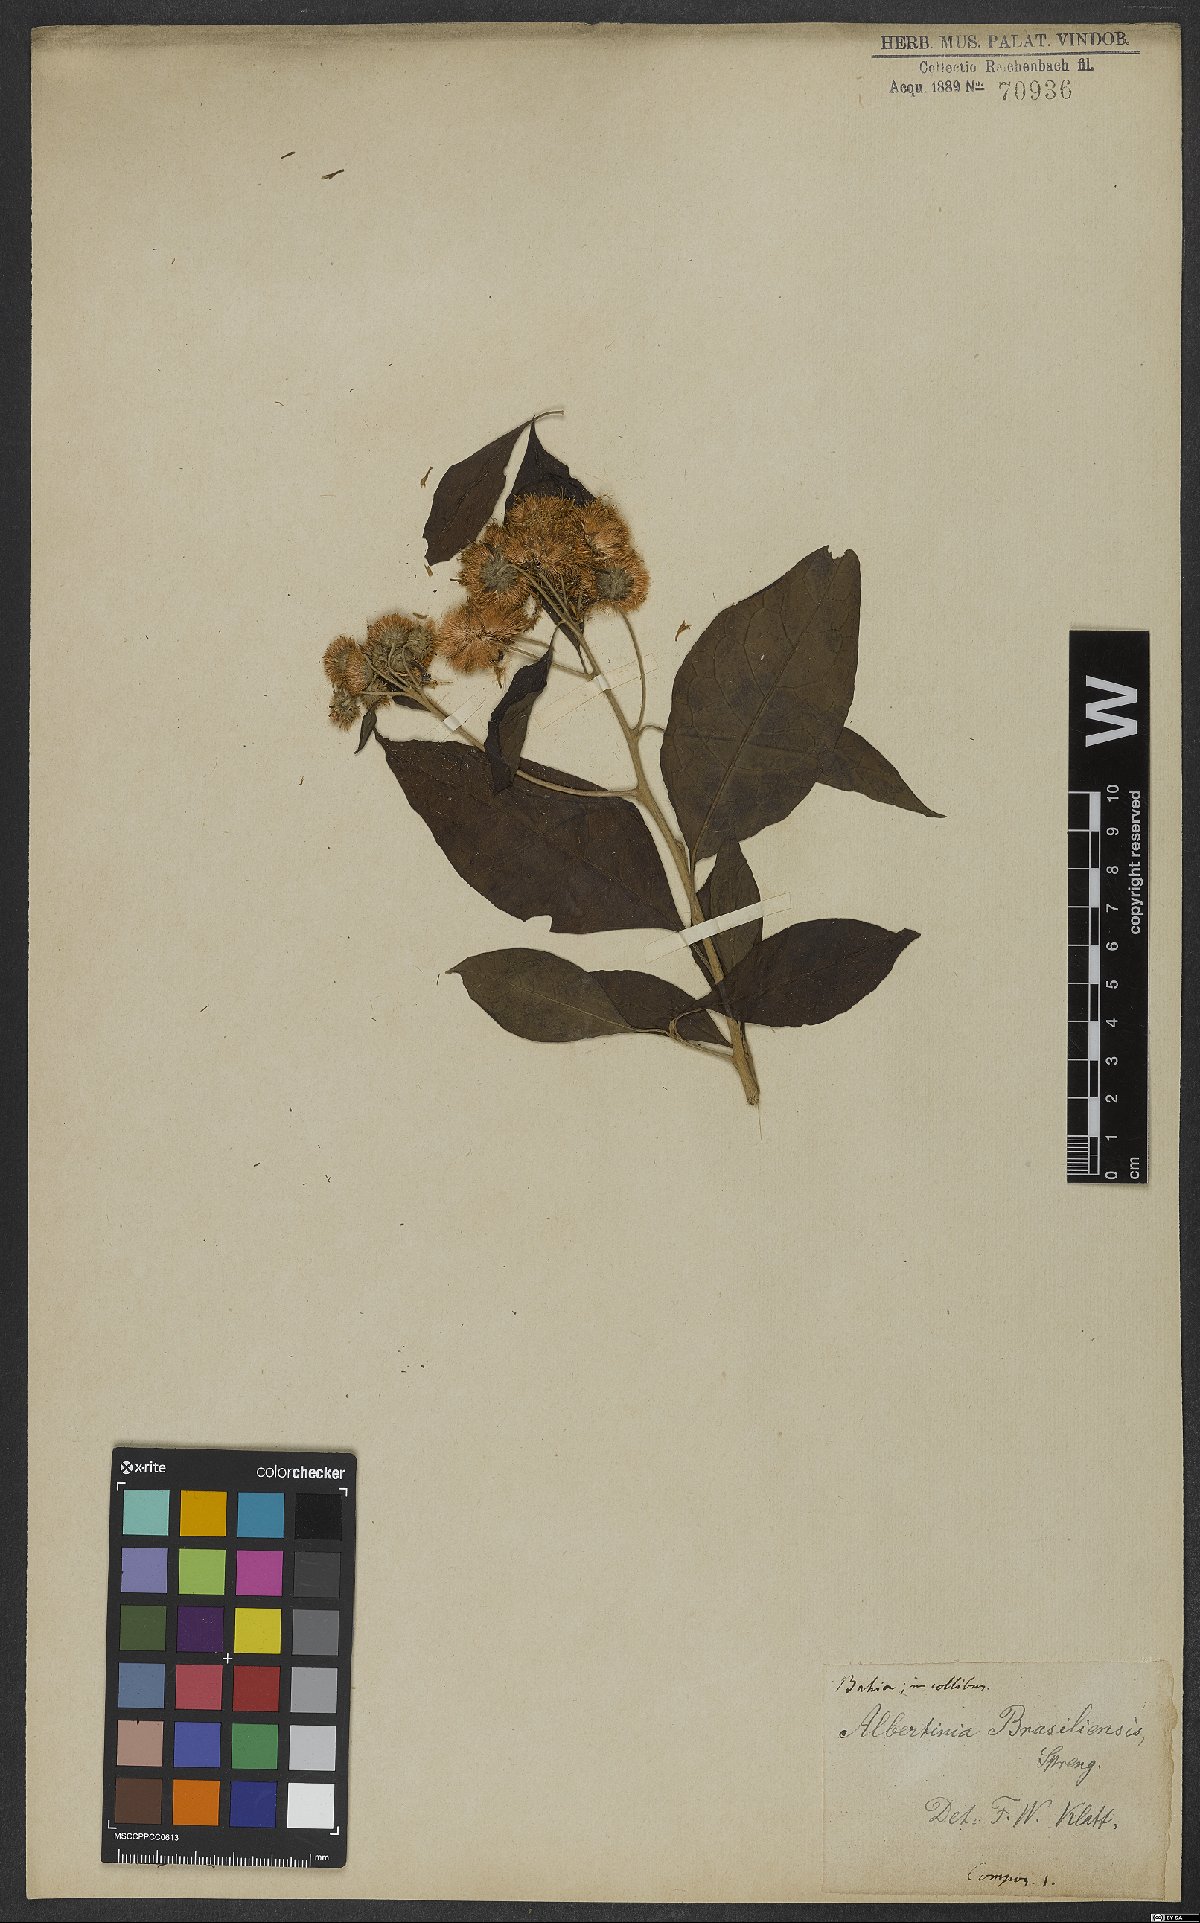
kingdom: Plantae
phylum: Tracheophyta
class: Magnoliopsida
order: Asterales
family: Asteraceae
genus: Albertinia
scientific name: Albertinia brasiliensis
